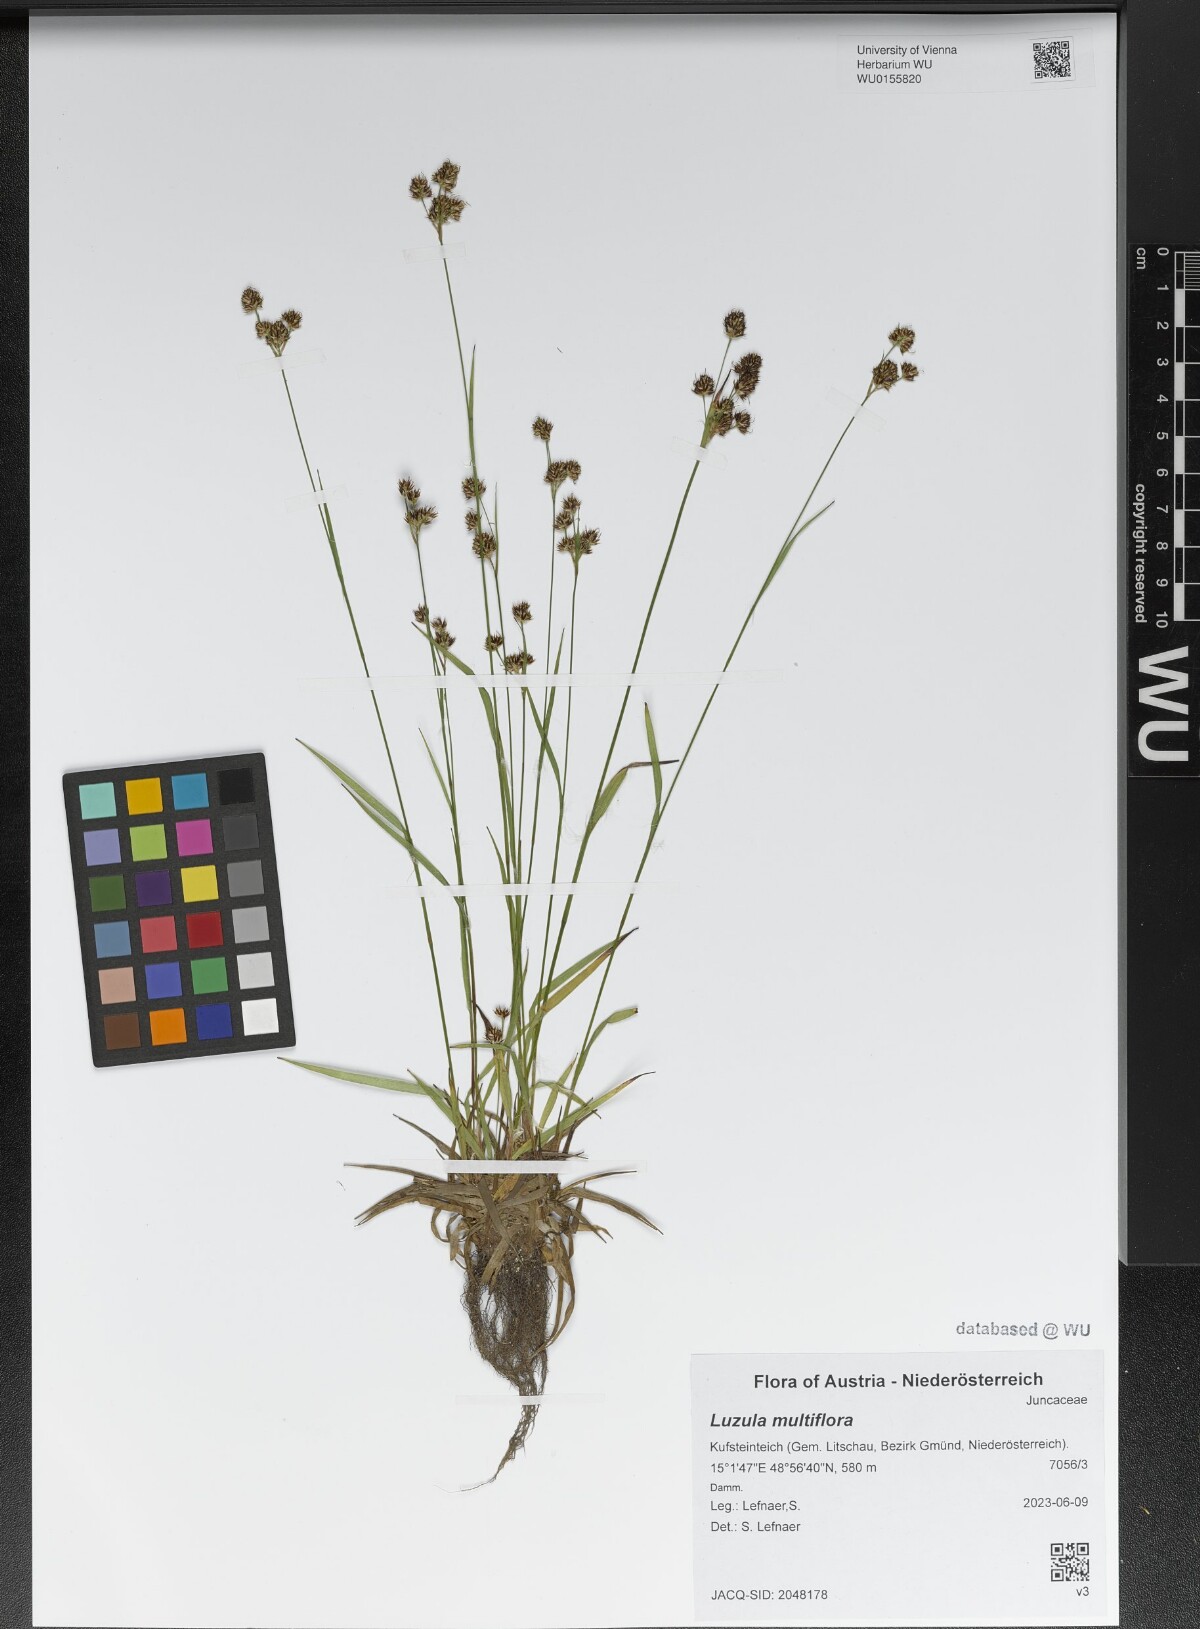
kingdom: Plantae
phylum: Tracheophyta
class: Liliopsida
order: Poales
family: Juncaceae
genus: Luzula
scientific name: Luzula multiflora
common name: Heath wood-rush
